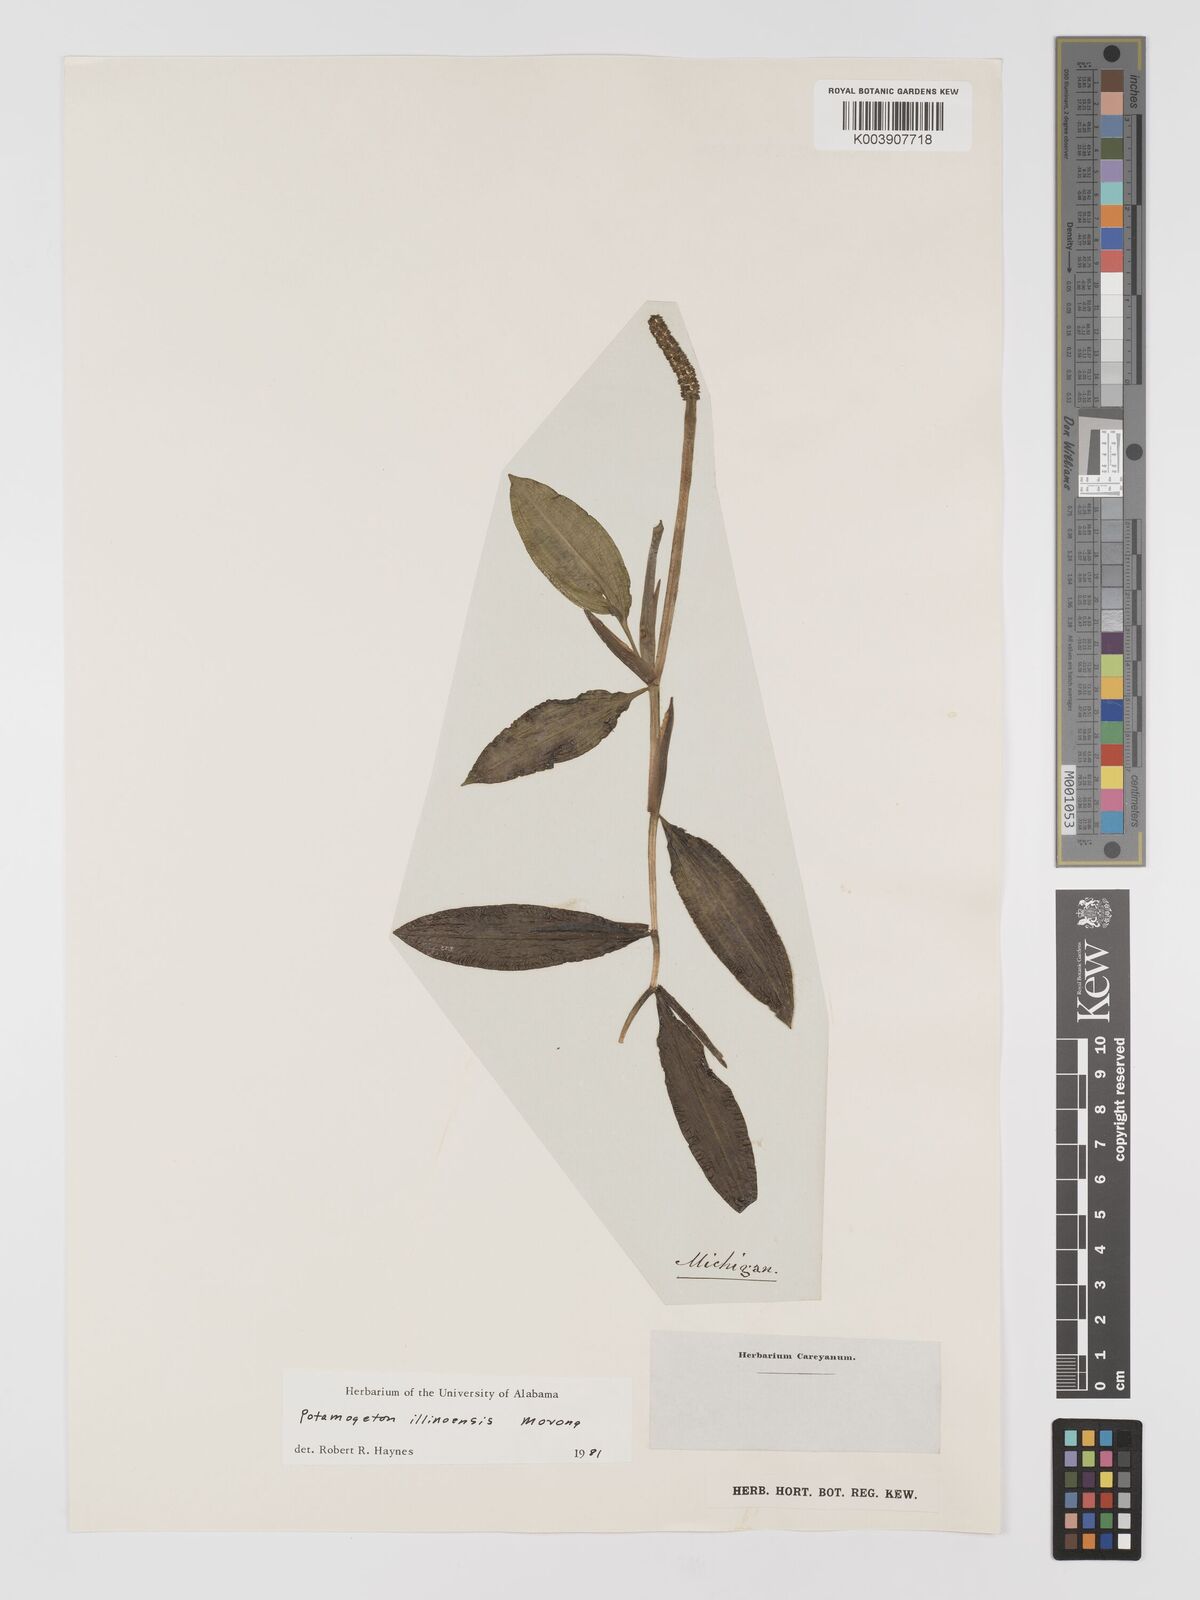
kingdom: Plantae
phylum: Tracheophyta
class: Liliopsida
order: Alismatales
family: Potamogetonaceae
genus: Potamogeton
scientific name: Potamogeton illinoensis
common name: Illinois pondweed
